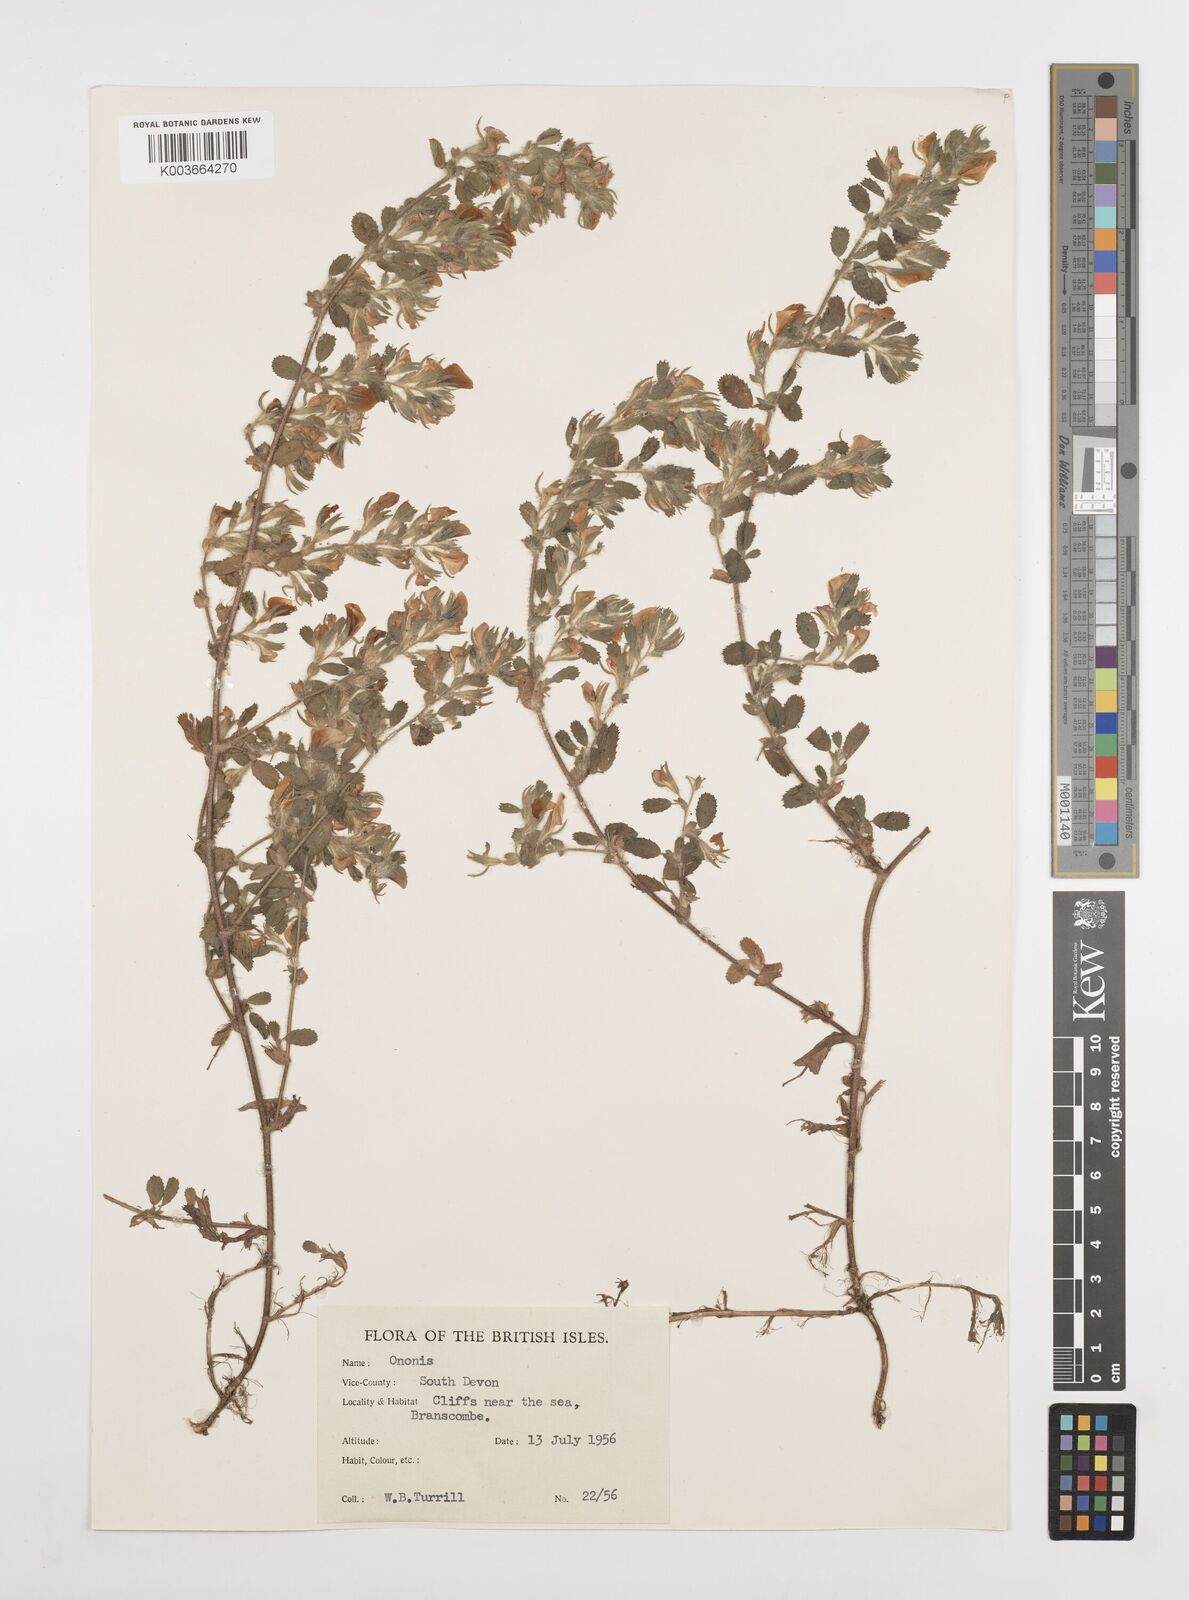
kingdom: Plantae
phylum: Tracheophyta
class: Magnoliopsida
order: Fabales
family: Fabaceae
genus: Ononis
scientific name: Ononis spinosa
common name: Spiny restharrow
